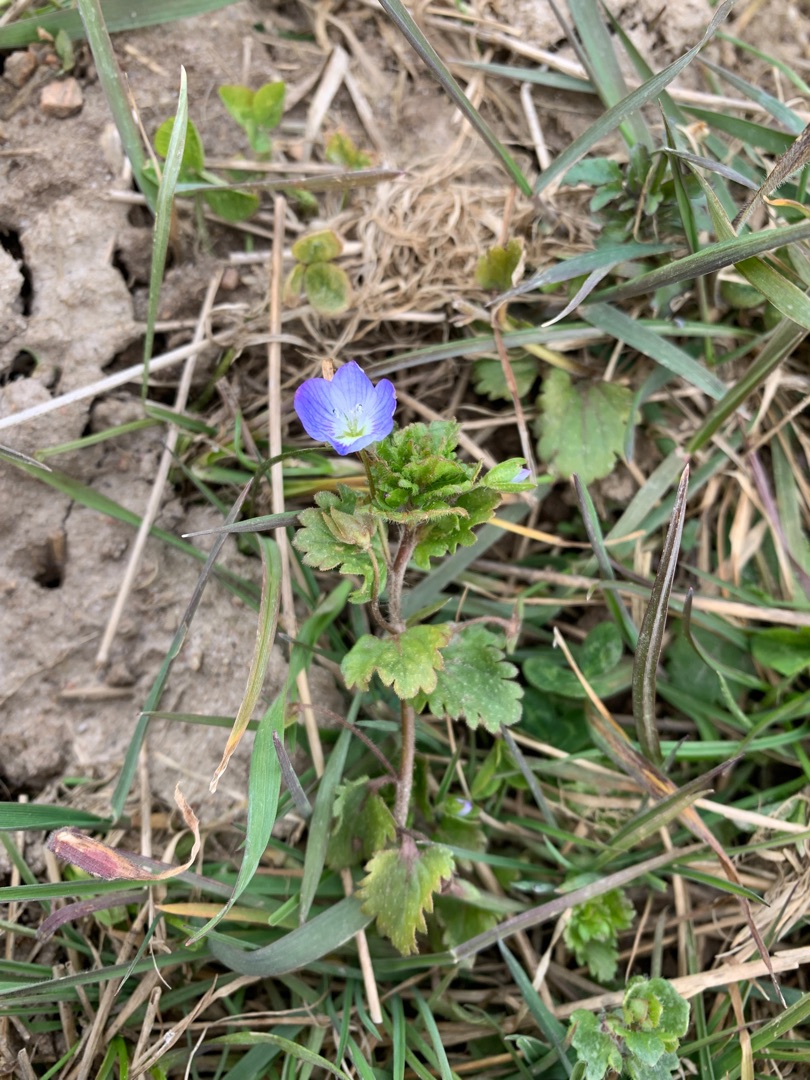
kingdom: Plantae
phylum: Tracheophyta
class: Magnoliopsida
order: Lamiales
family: Plantaginaceae
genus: Veronica
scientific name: Veronica persica
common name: Storkronet ærenpris
